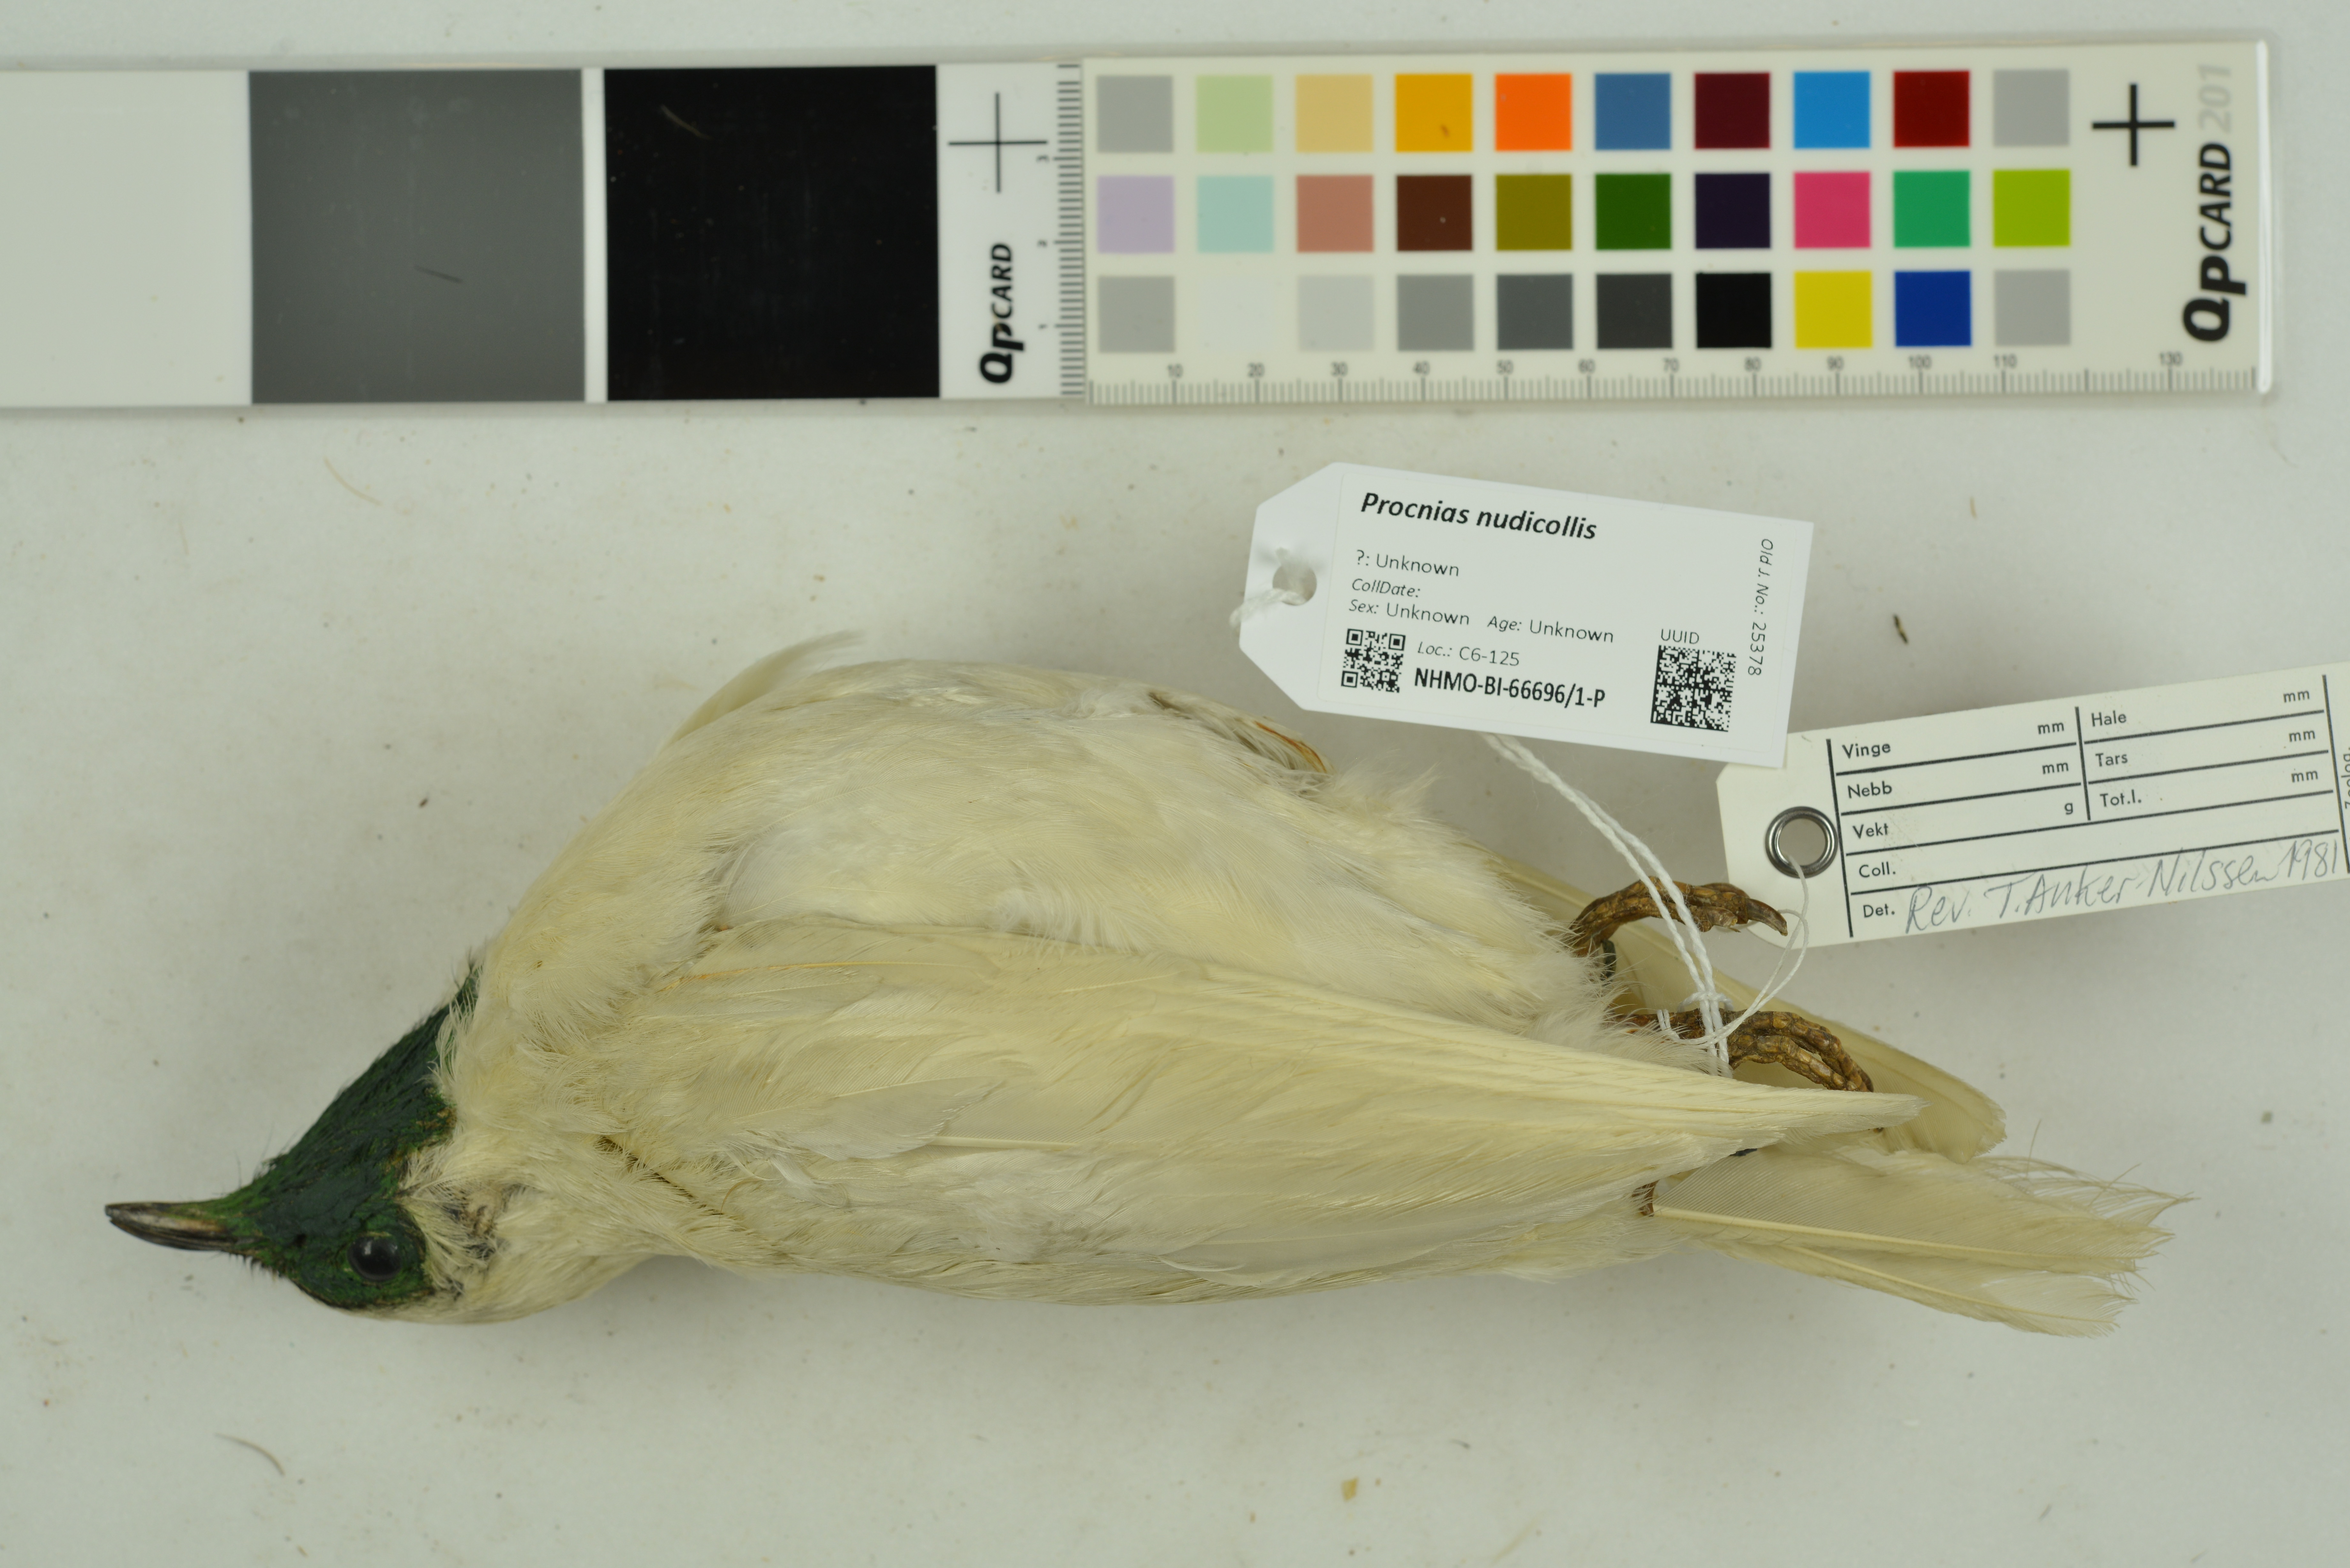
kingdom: Animalia
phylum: Chordata
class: Aves
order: Passeriformes
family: Cotingidae
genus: Procnias
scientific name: Procnias nudicollis
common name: Bare-throated bellbird
